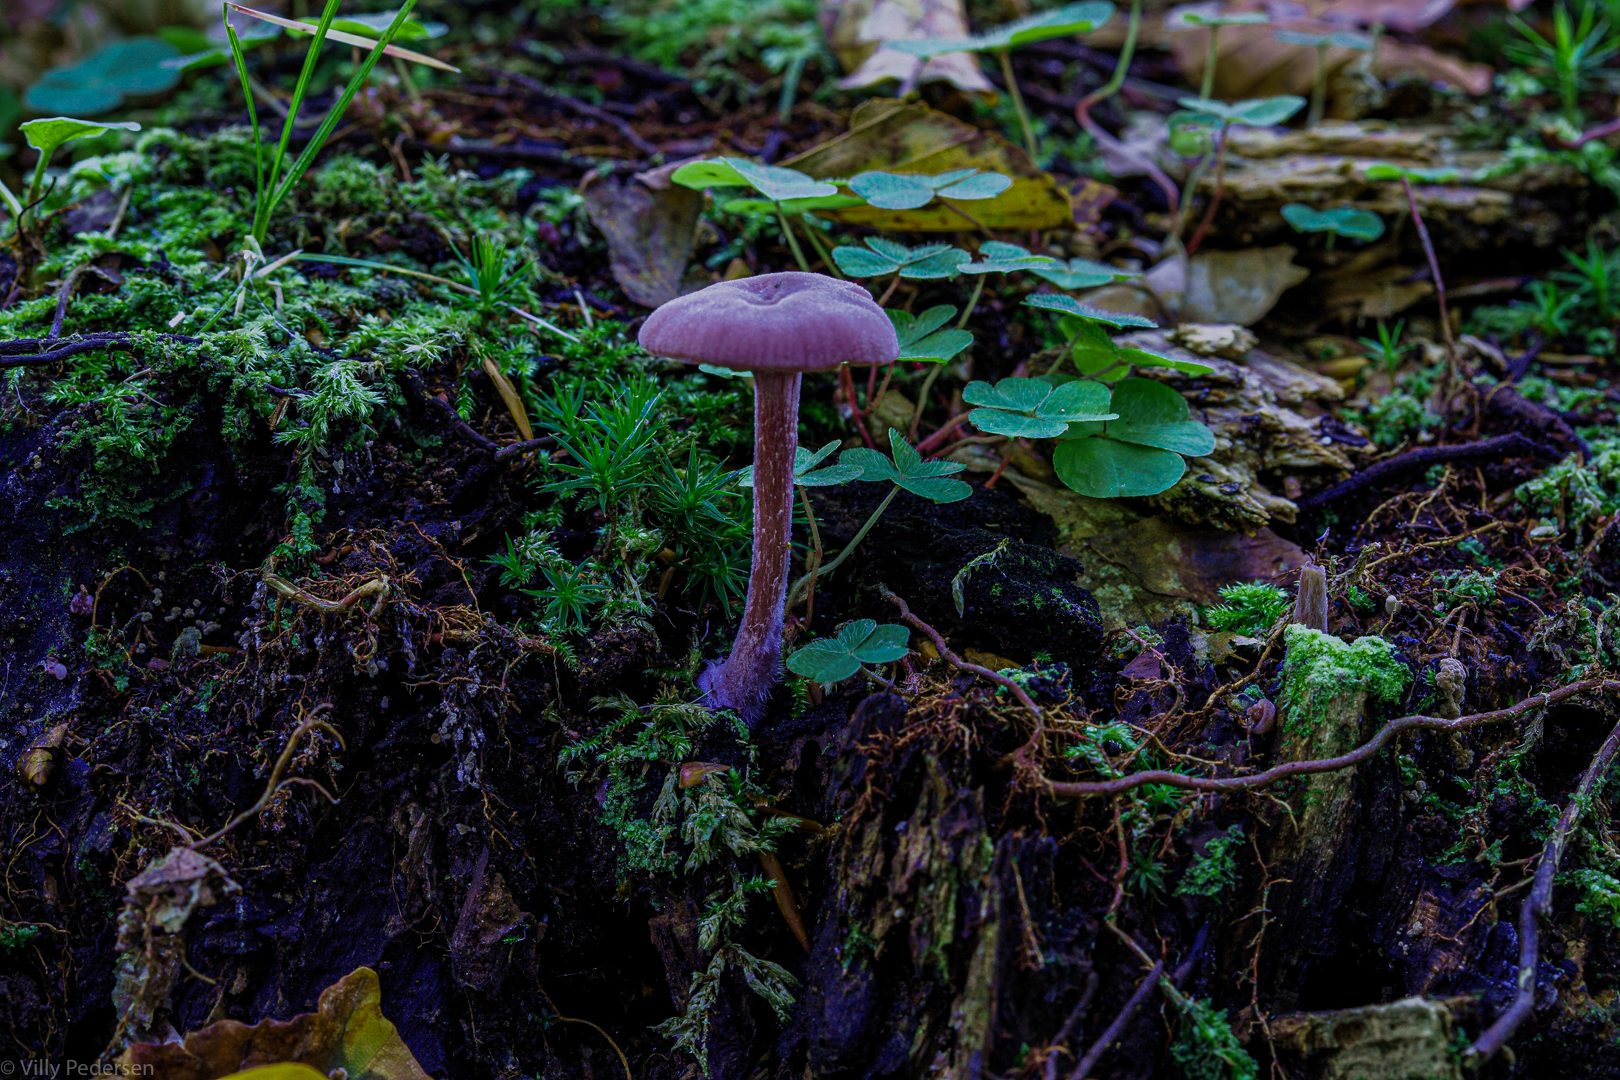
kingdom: Fungi
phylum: Basidiomycota
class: Agaricomycetes
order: Agaricales
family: Hydnangiaceae
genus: Laccaria
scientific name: Laccaria amethystina
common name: violet ametysthat
